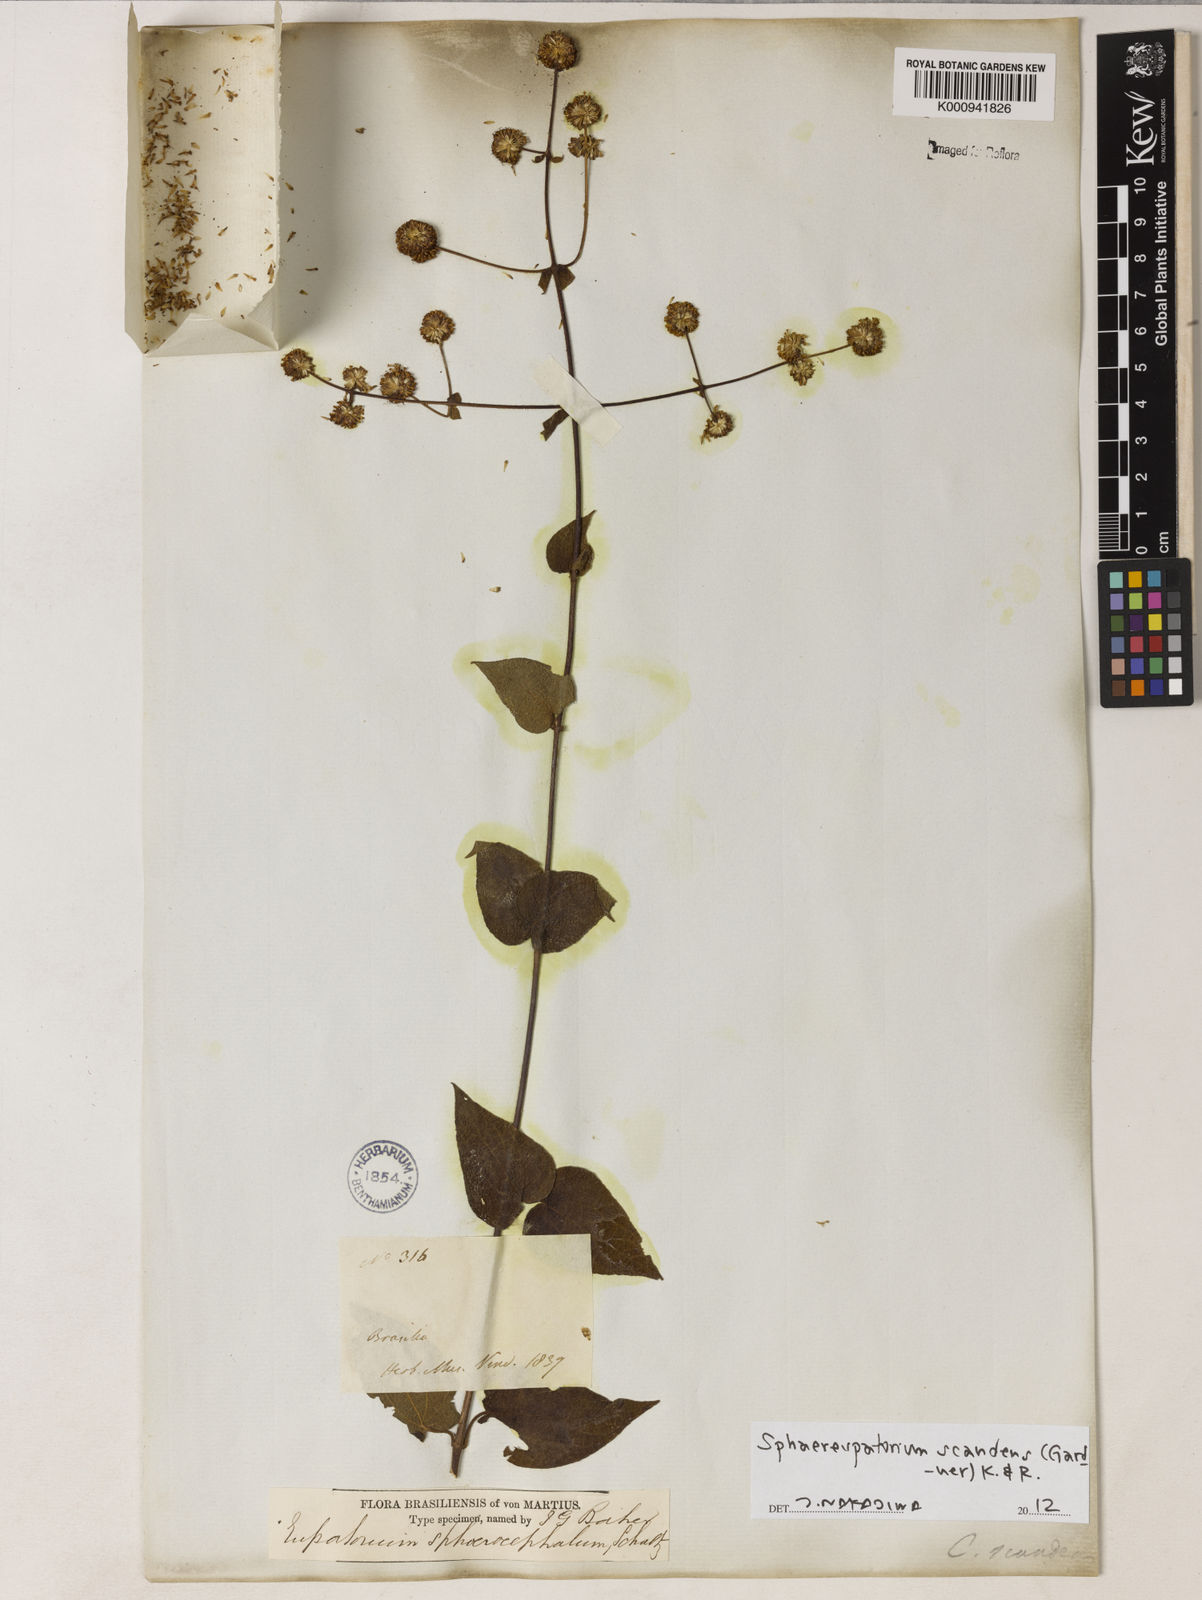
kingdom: Plantae
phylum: Tracheophyta
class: Magnoliopsida
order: Asterales
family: Asteraceae
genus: Sphaereupatorium
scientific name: Sphaereupatorium scandens
